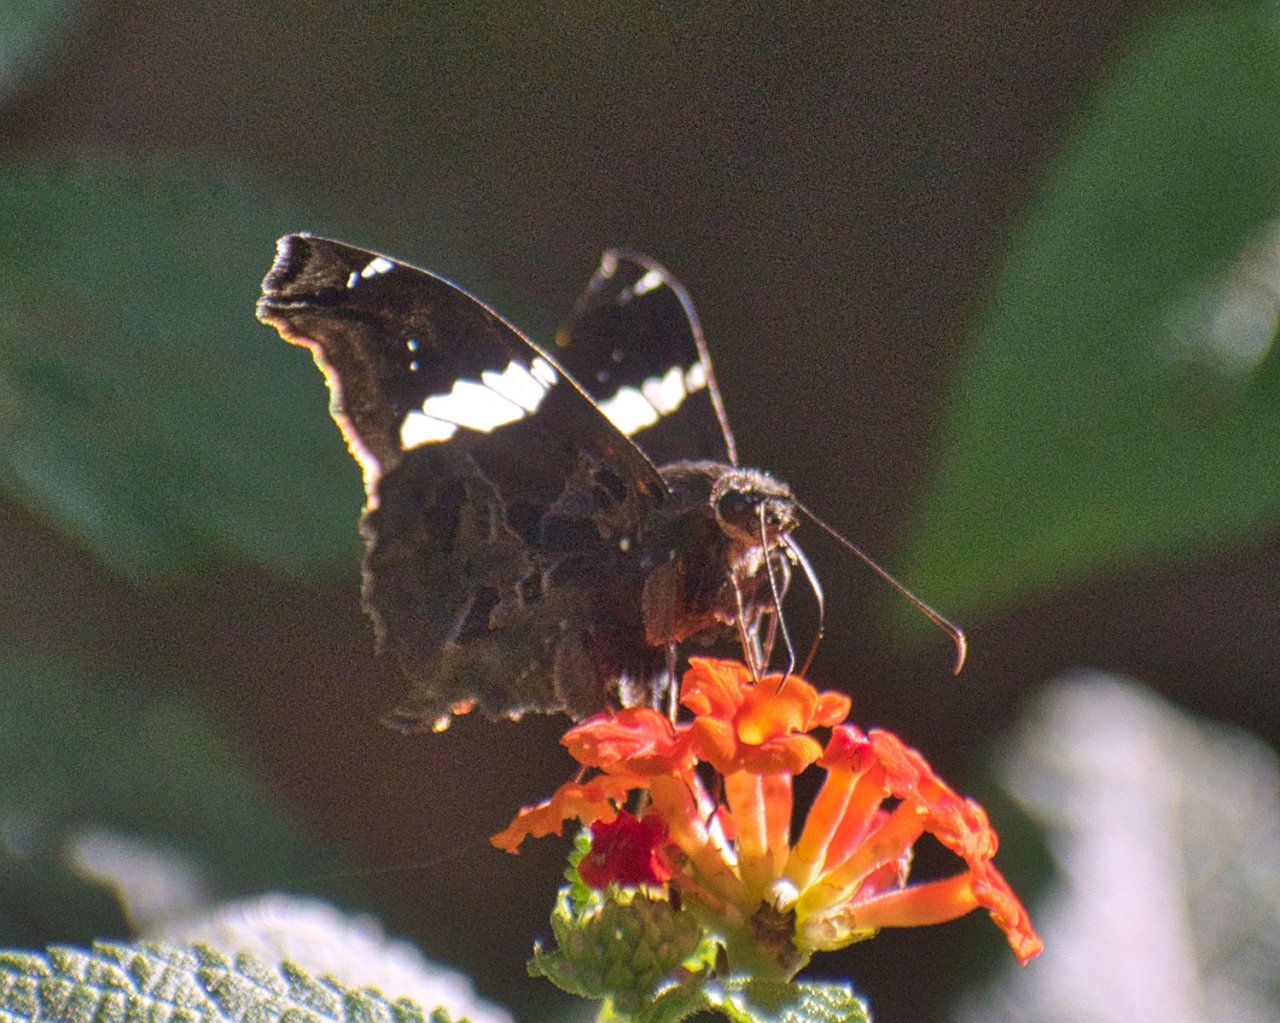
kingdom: Animalia
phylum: Arthropoda
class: Insecta
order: Lepidoptera
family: Hesperiidae
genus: Spathilepia
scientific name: Spathilepia clonius
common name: Falcate Skipper
